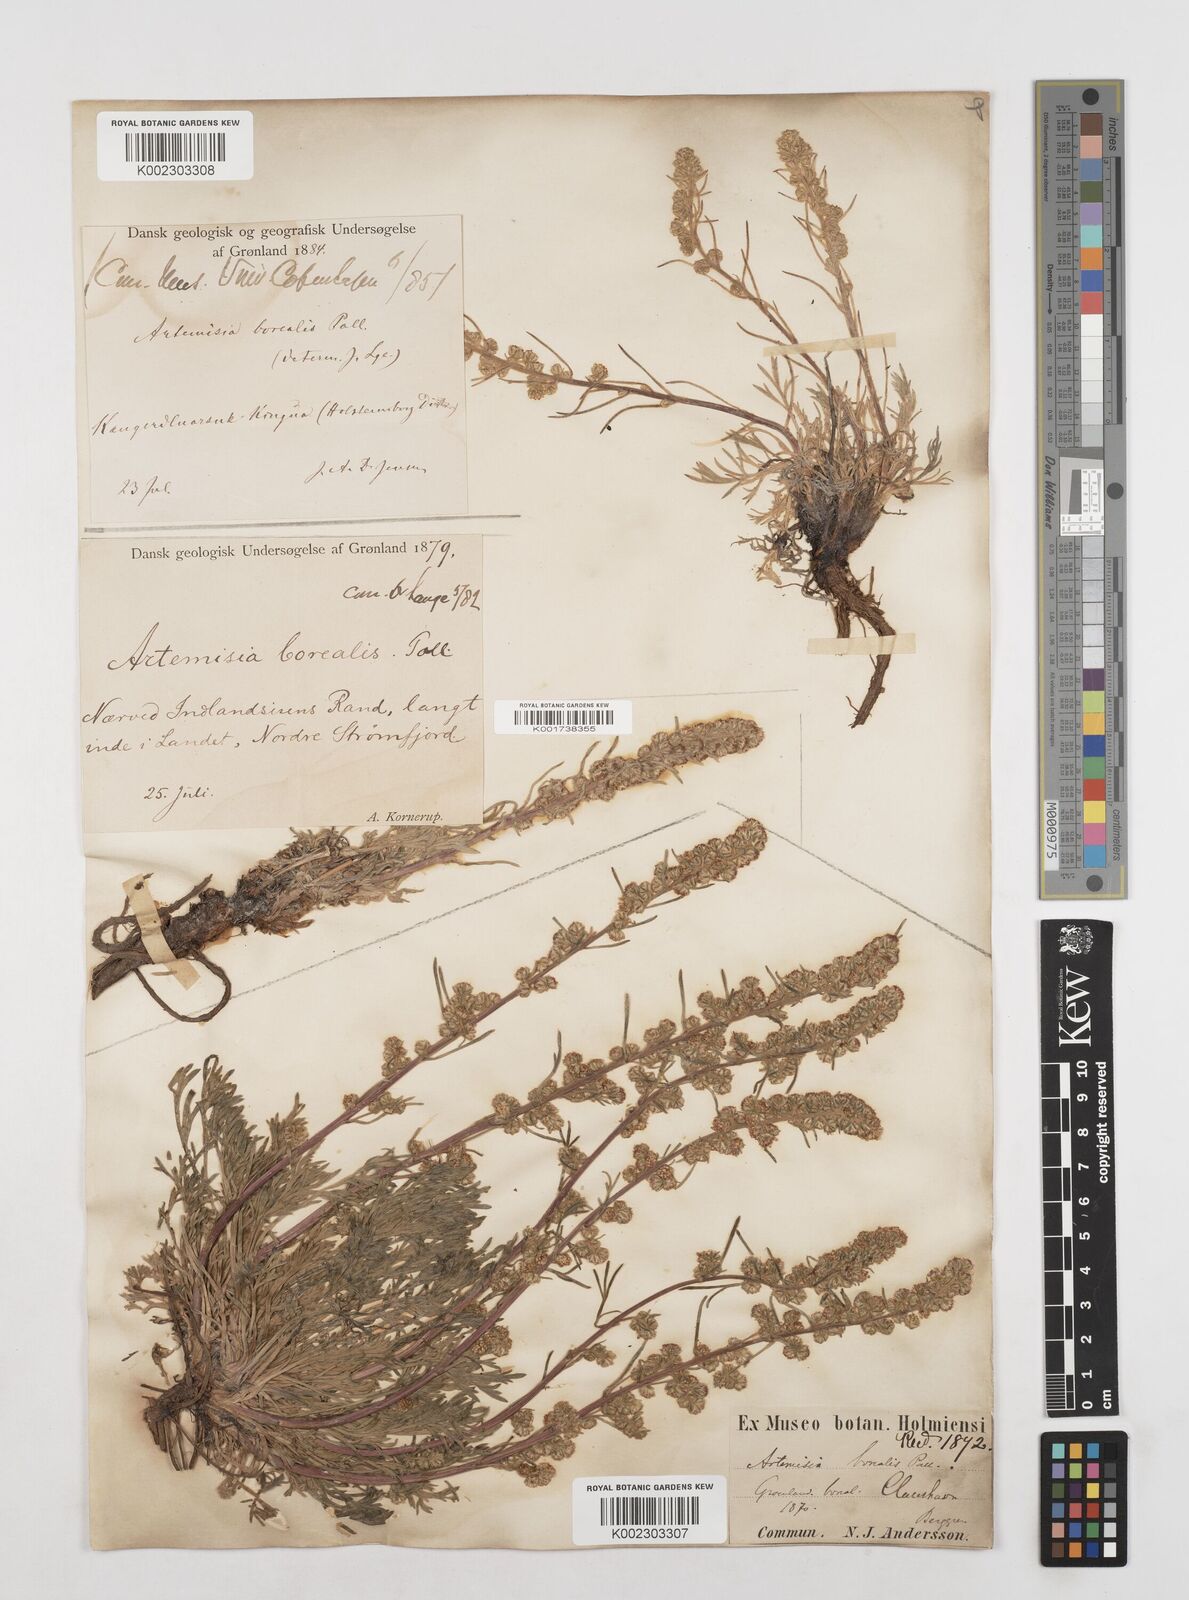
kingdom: Plantae
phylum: Tracheophyta
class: Magnoliopsida
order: Asterales
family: Asteraceae
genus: Artemisia
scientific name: Artemisia borealis
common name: Boreal sage
